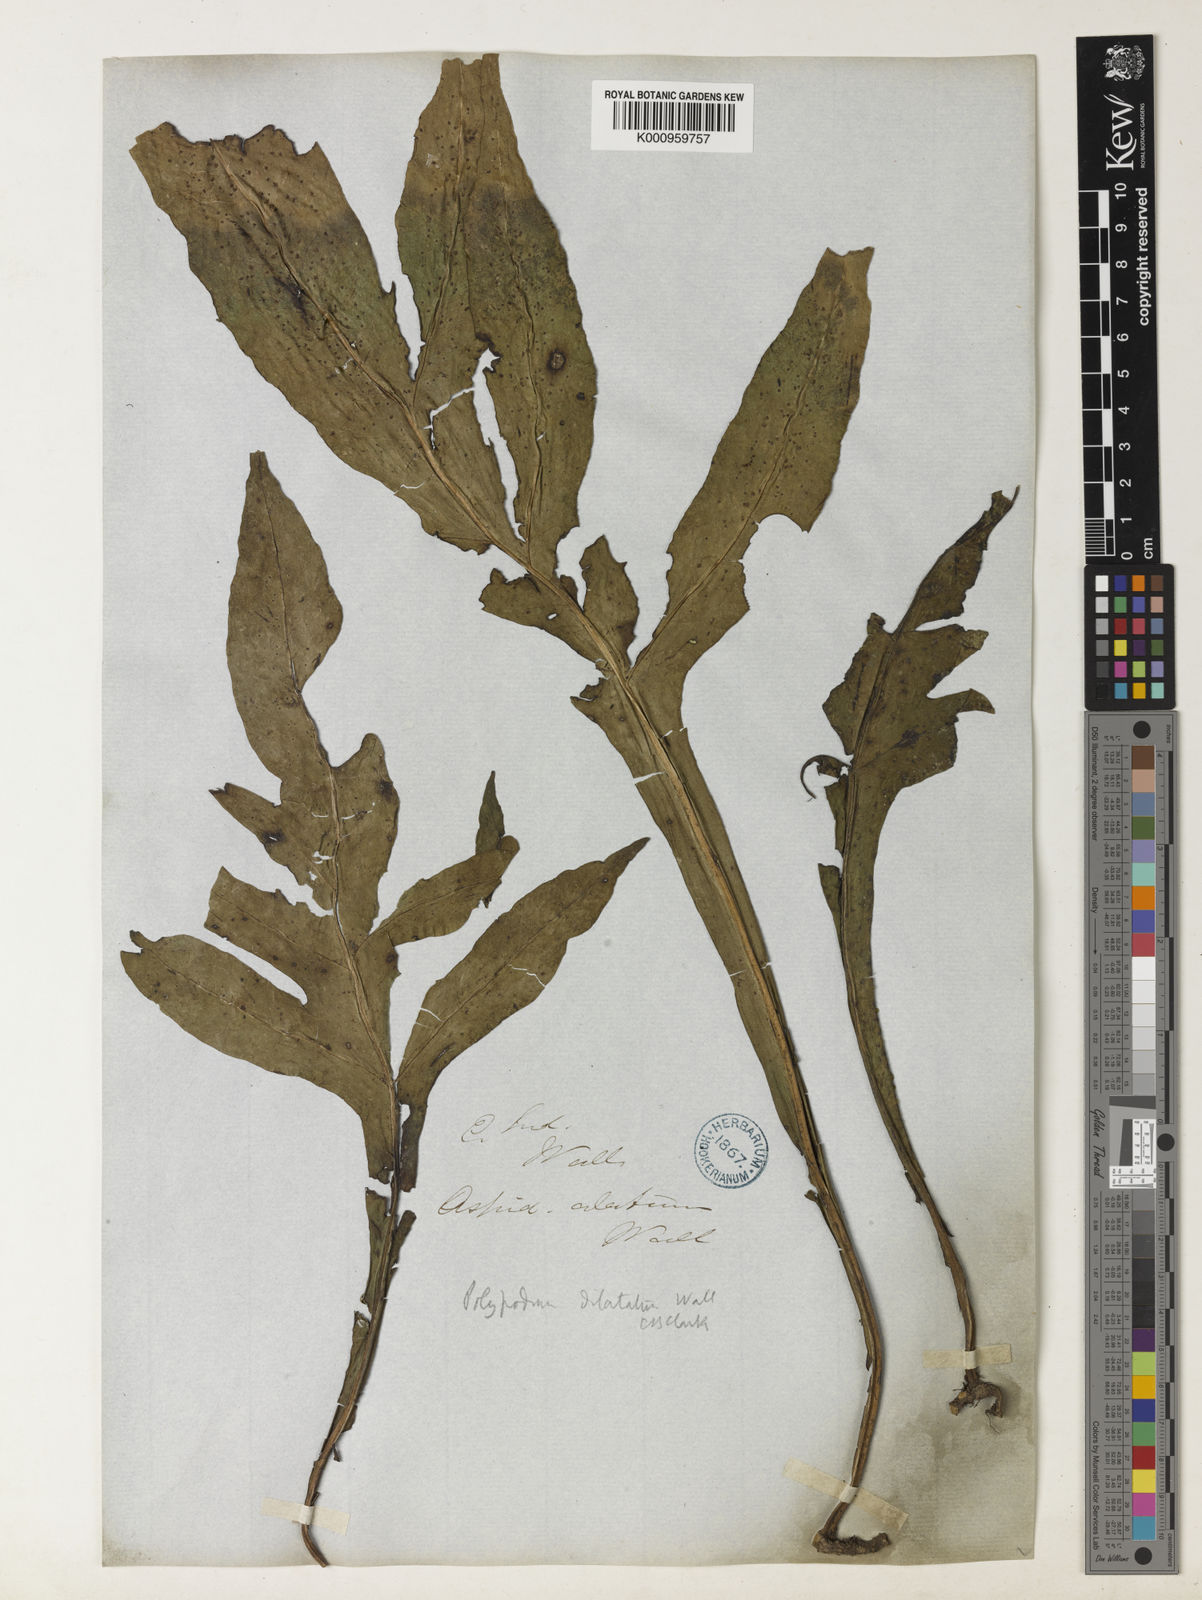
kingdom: Plantae
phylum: Tracheophyta
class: Polypodiopsida
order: Polypodiales
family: Polypodiaceae
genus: Leptochilus
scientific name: Leptochilus insignis
